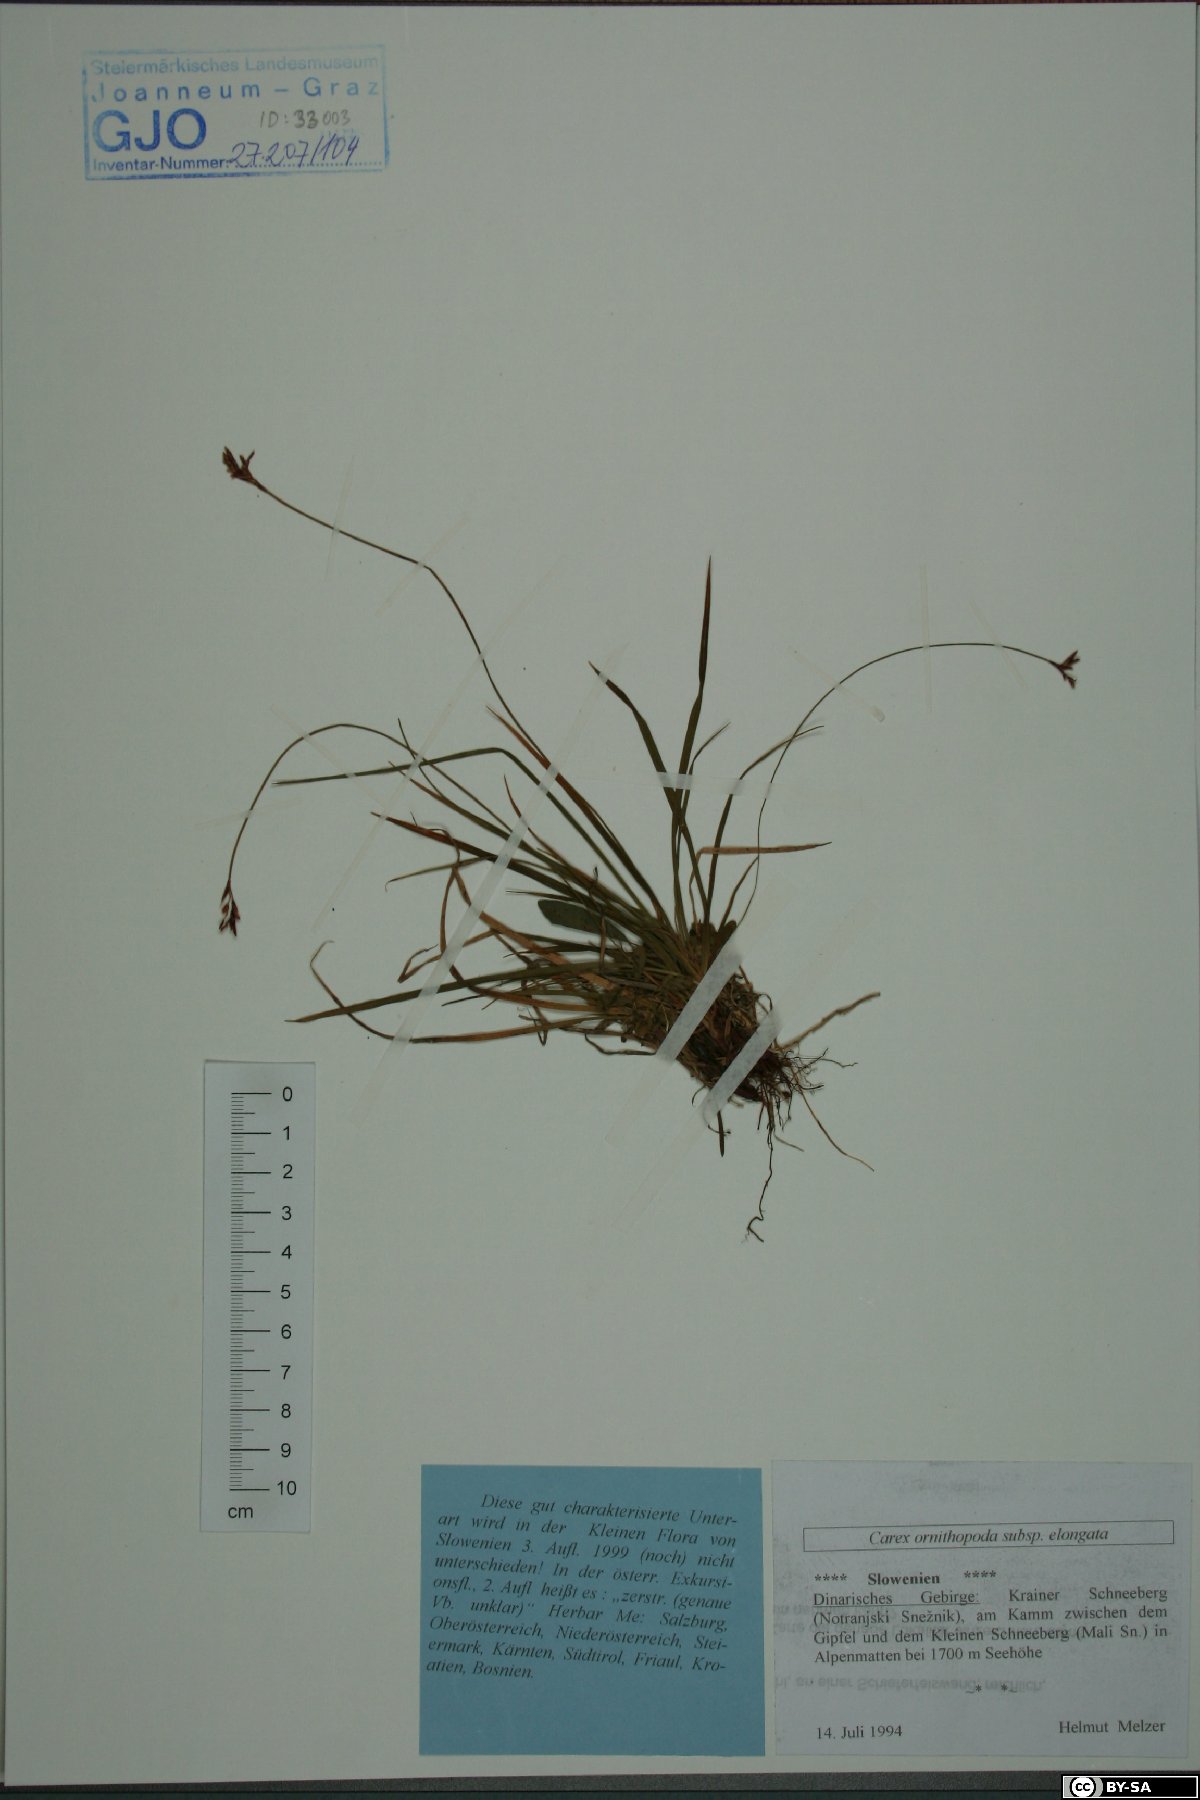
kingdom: Plantae
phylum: Tracheophyta
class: Liliopsida
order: Poales
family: Cyperaceae
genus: Carex
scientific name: Carex ornithopoda
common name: Bird's-foot sedge
